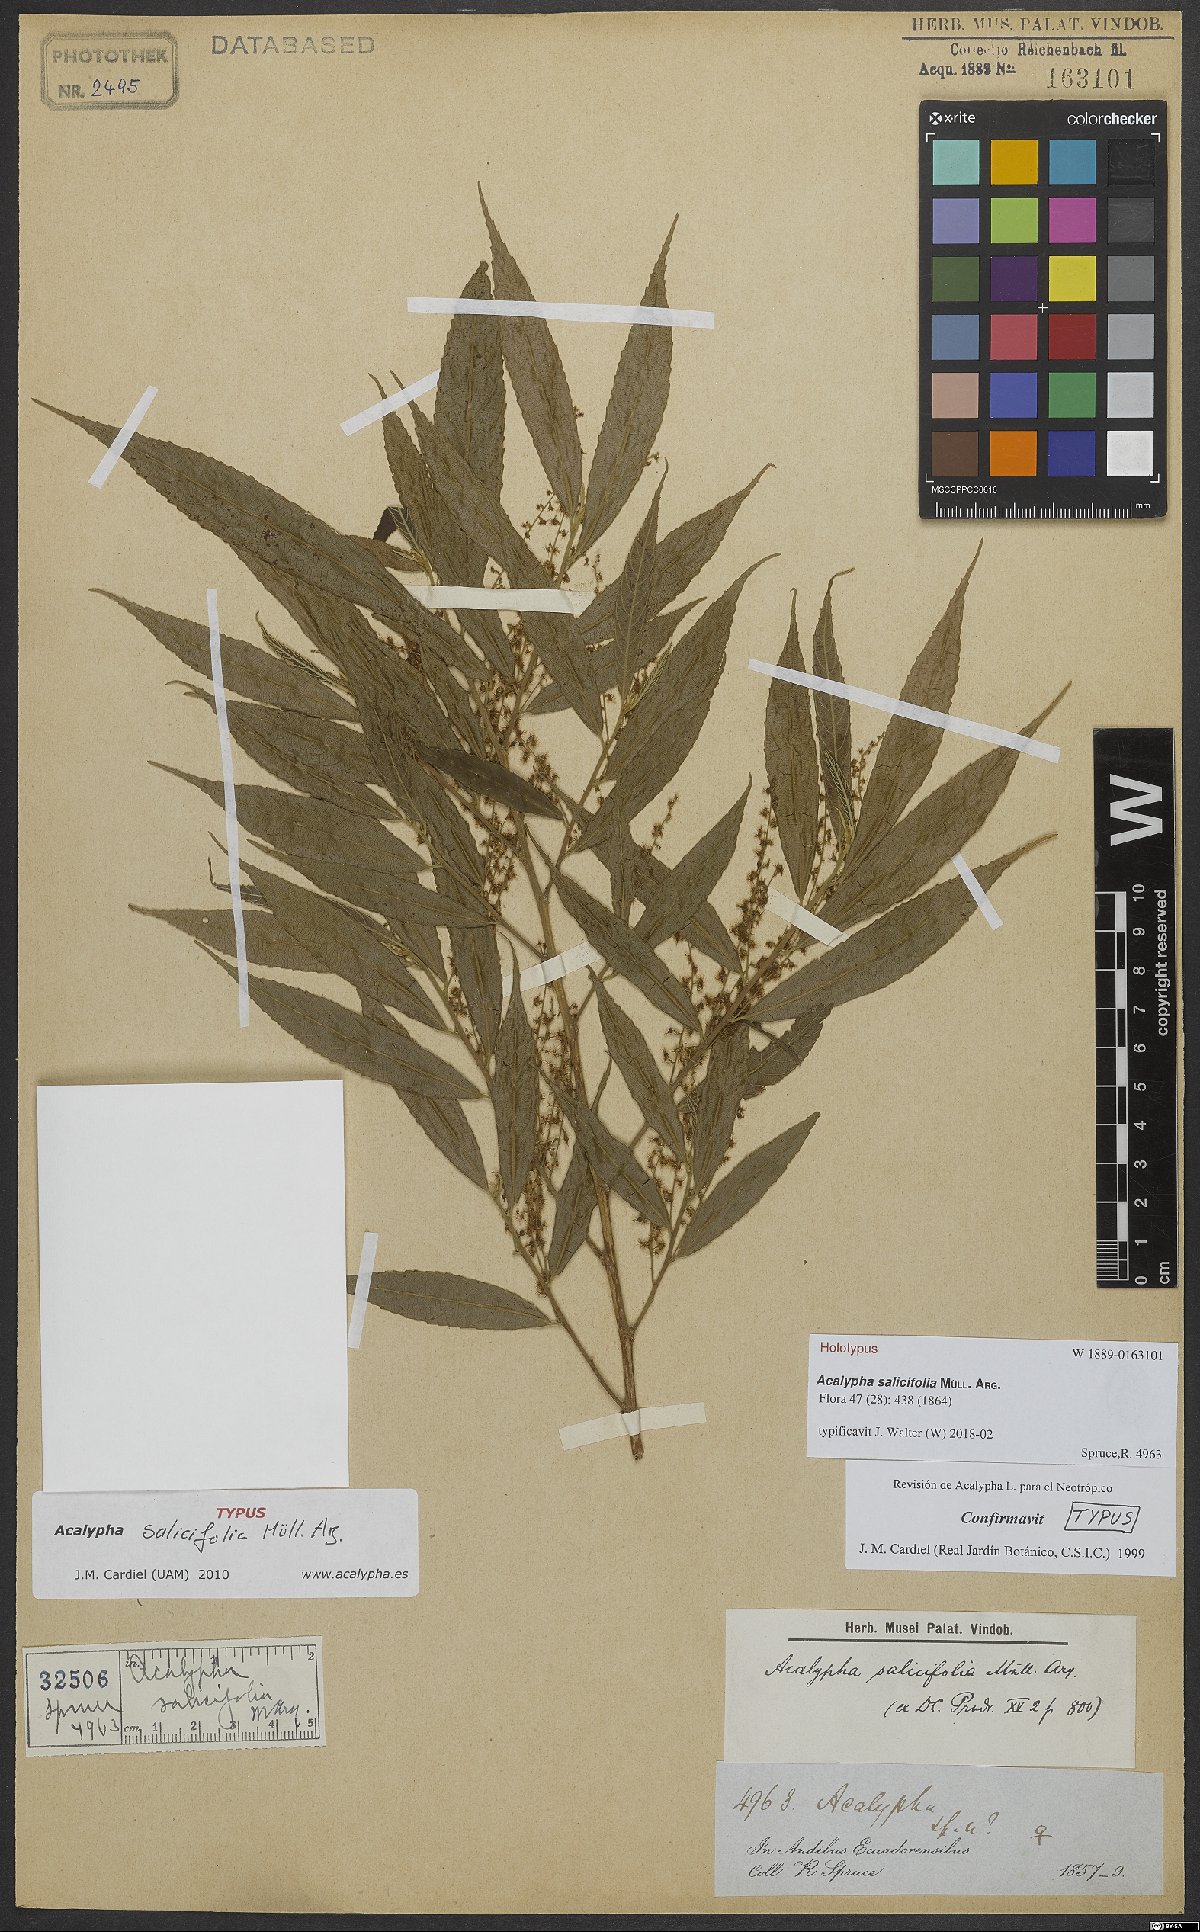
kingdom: Plantae
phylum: Tracheophyta
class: Magnoliopsida
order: Malpighiales
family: Euphorbiaceae
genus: Acalypha
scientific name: Acalypha salicifolia
